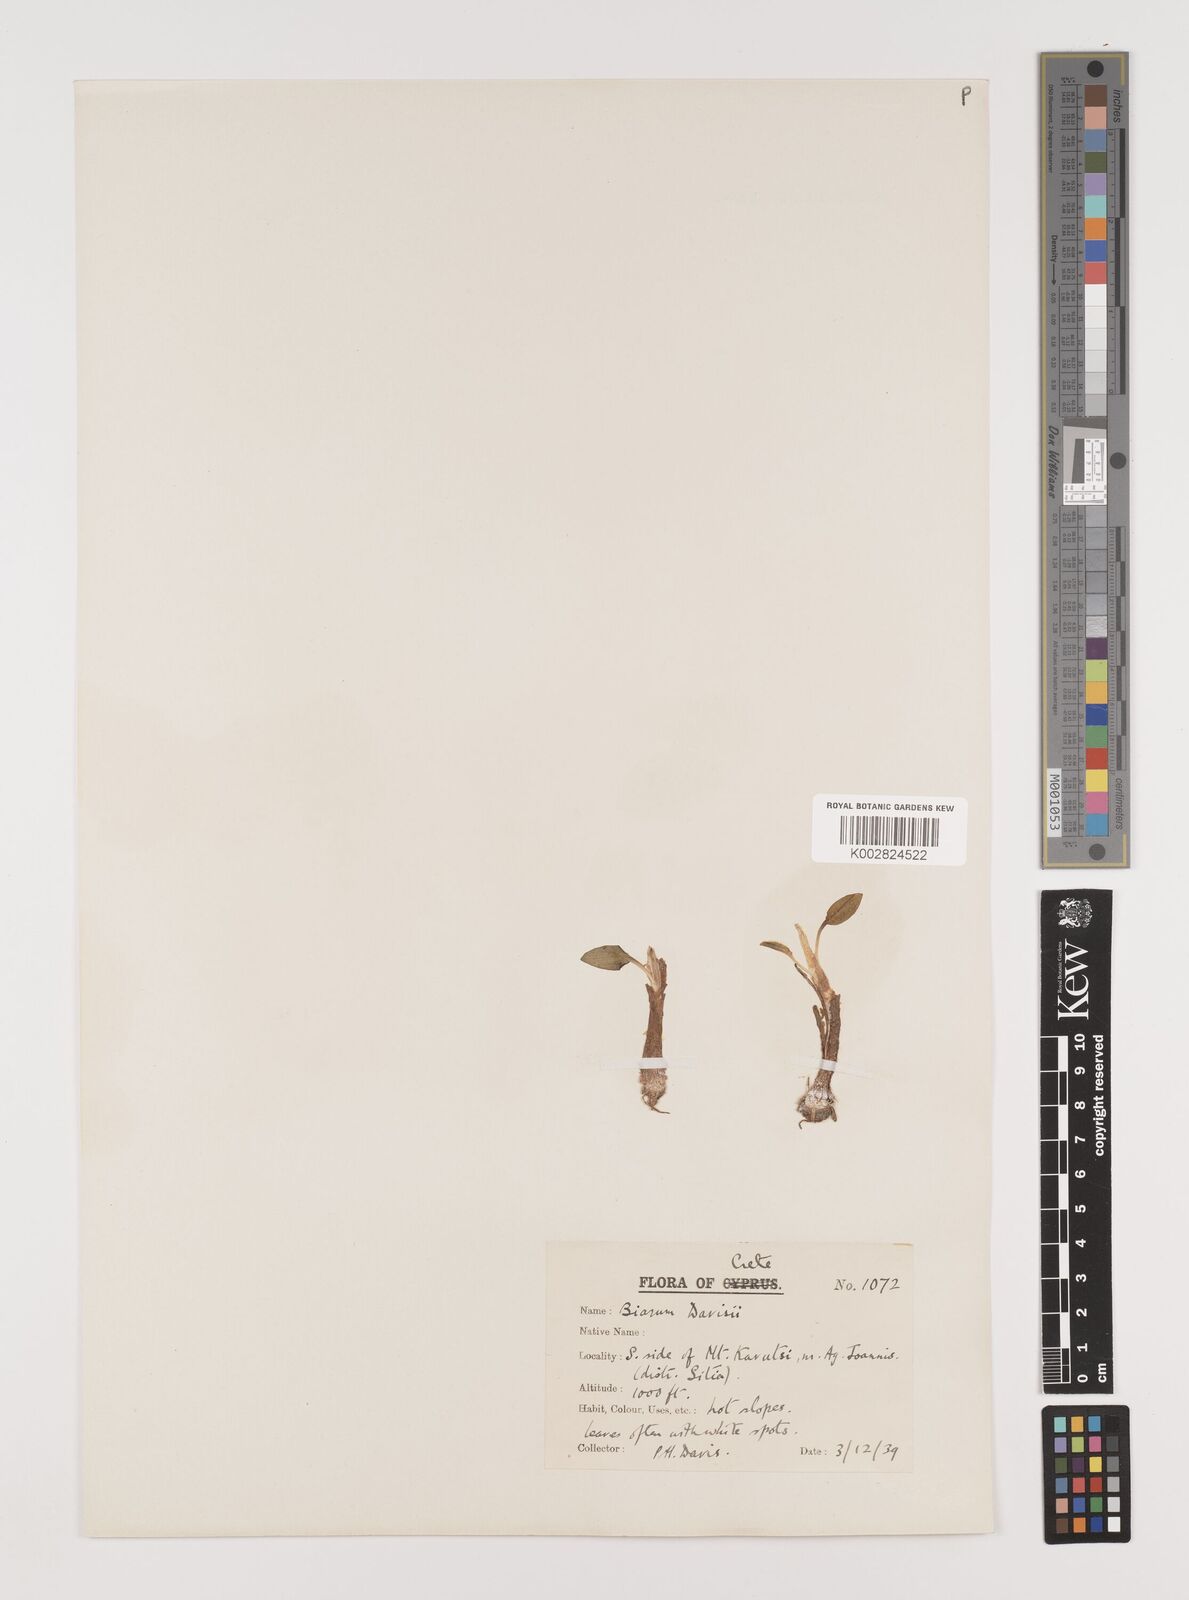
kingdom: Plantae
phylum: Tracheophyta
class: Liliopsida
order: Alismatales
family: Araceae
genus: Biarum
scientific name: Biarum davisii
